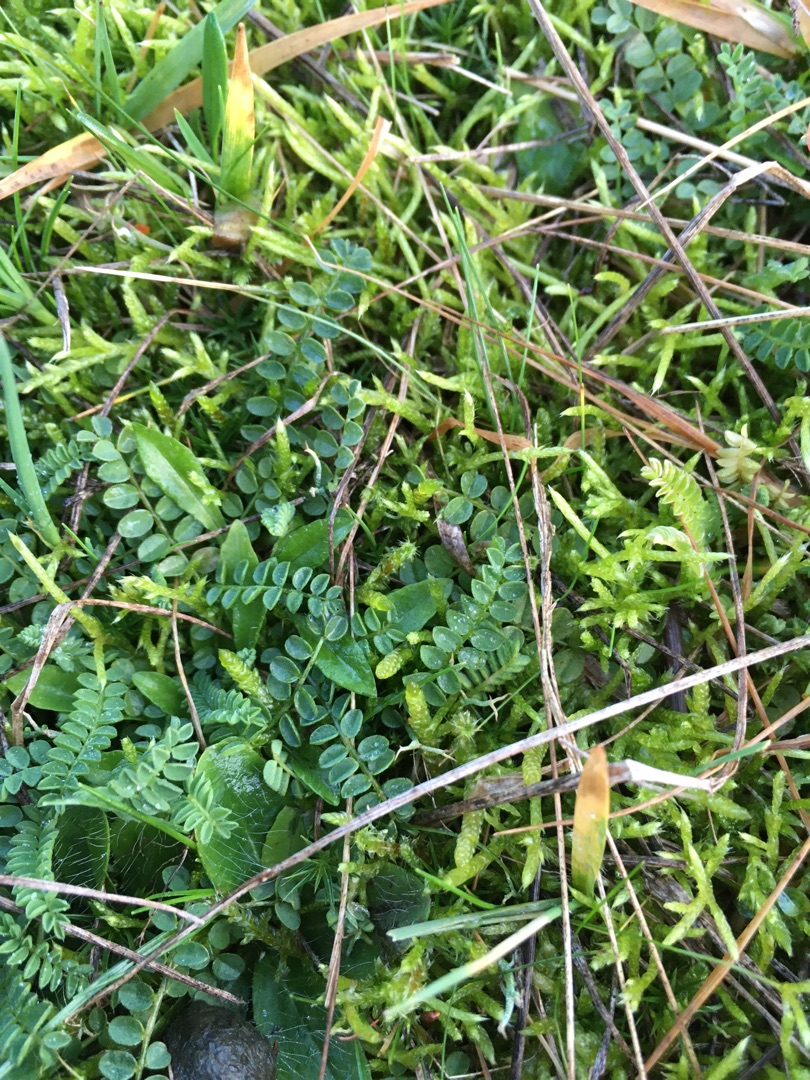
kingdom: Plantae
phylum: Tracheophyta
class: Magnoliopsida
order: Fabales
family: Fabaceae
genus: Ornithopus
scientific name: Ornithopus perpusillus
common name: Liden fugleklo
